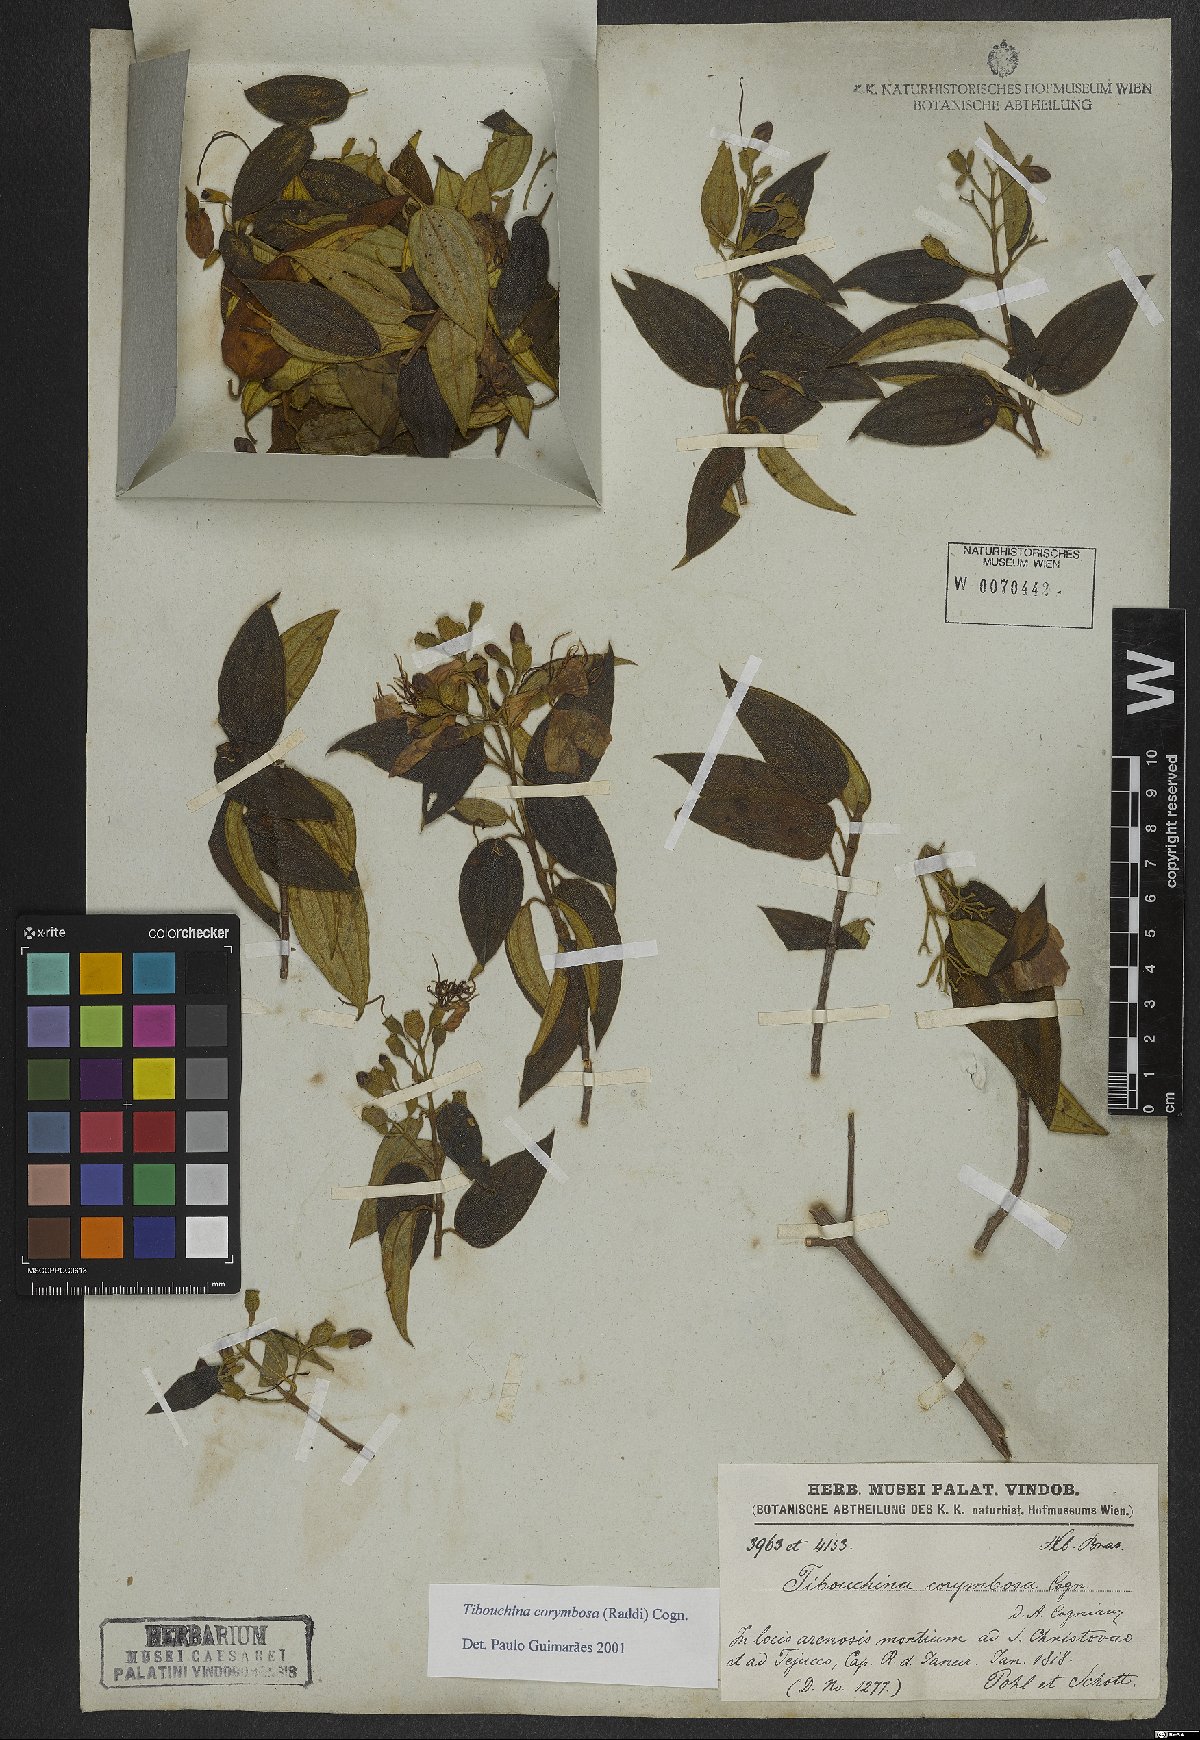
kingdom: Plantae
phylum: Tracheophyta
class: Magnoliopsida
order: Myrtales
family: Melastomataceae
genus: Pleroma
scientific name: Pleroma vimineum
